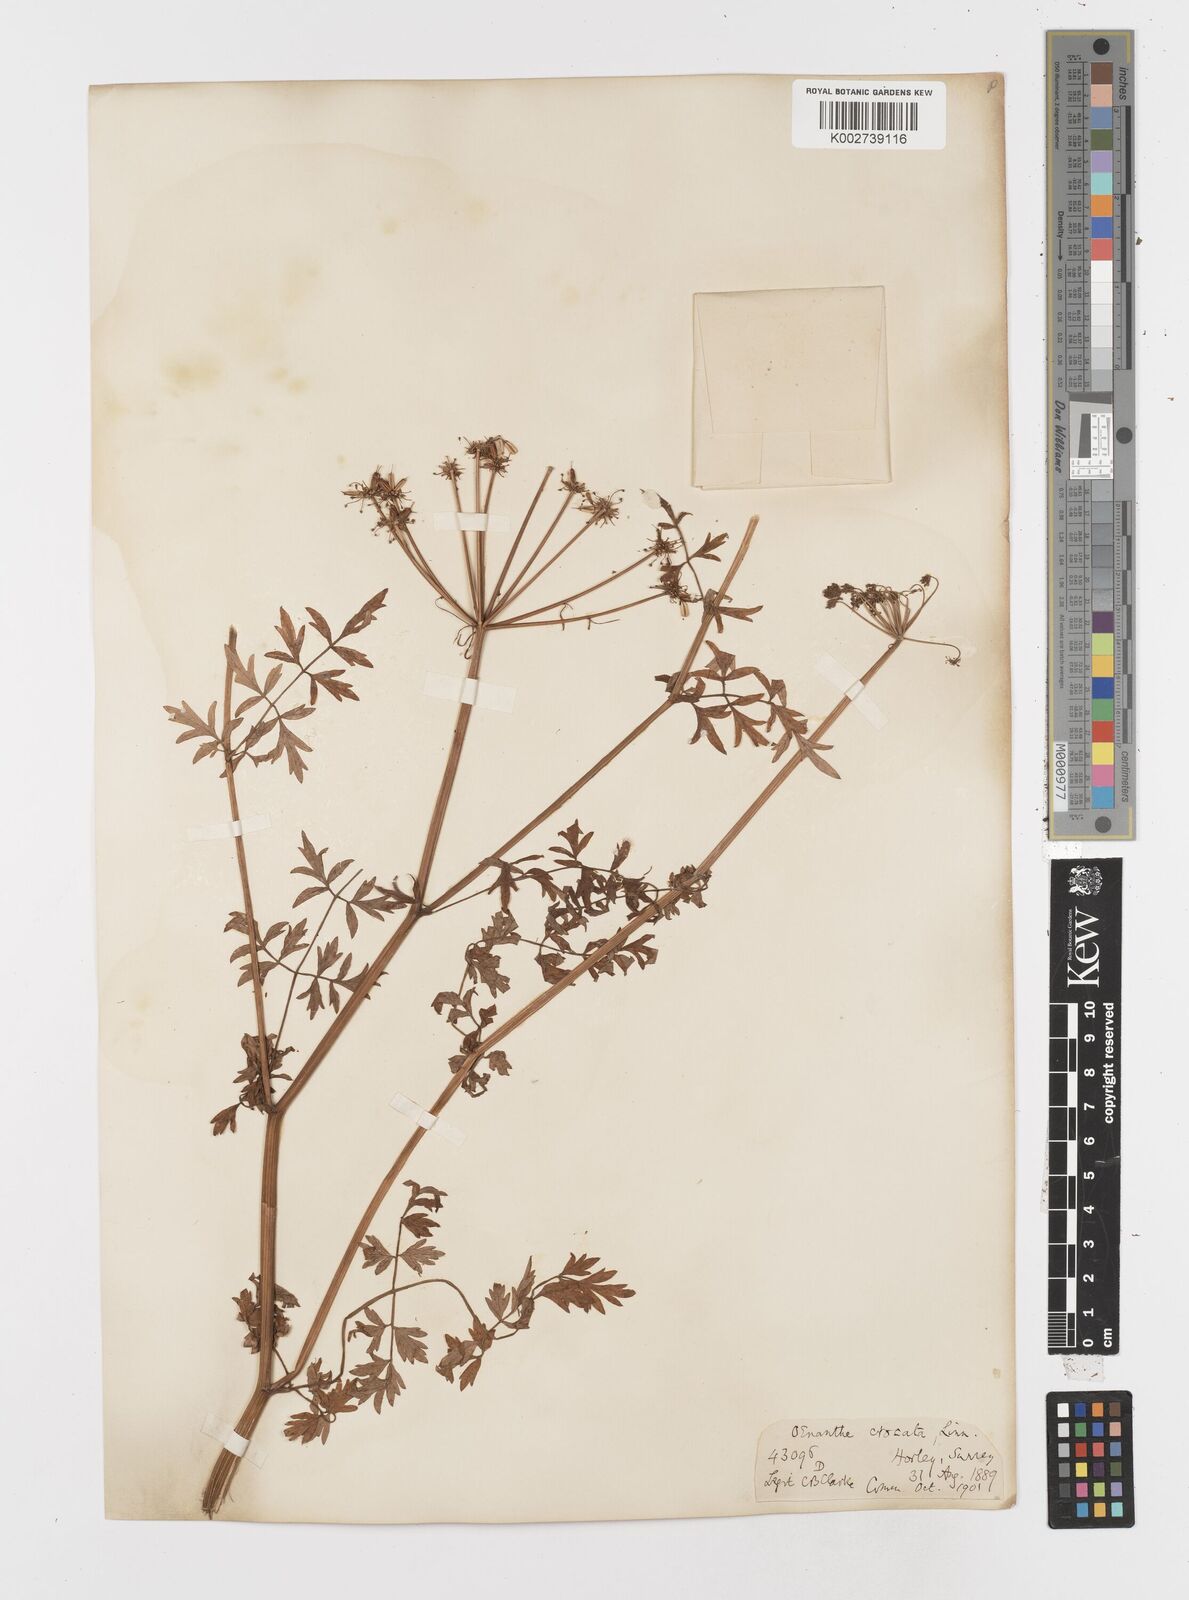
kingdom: Plantae
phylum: Tracheophyta
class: Magnoliopsida
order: Apiales
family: Apiaceae
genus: Oenanthe
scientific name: Oenanthe crocata
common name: Hemlock water-dropwort
